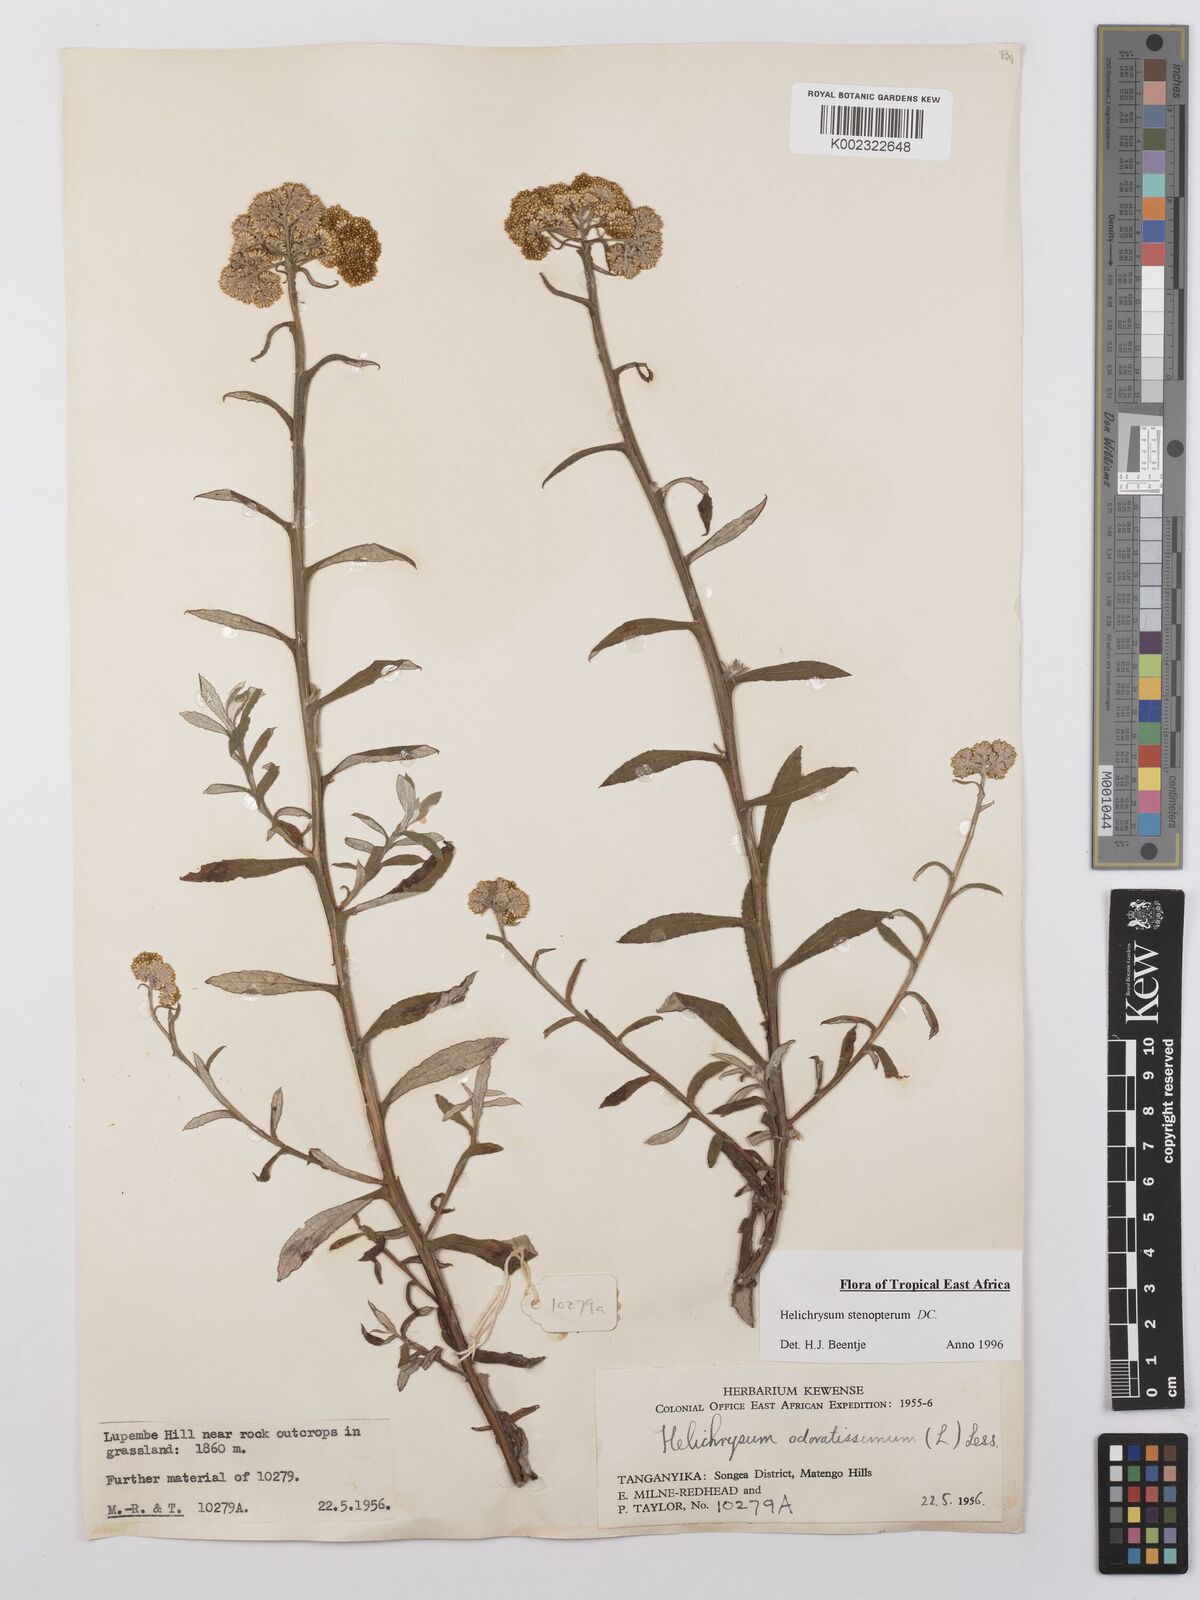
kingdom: Plantae
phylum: Tracheophyta
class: Magnoliopsida
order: Asterales
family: Asteraceae
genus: Helichrysum
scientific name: Helichrysum stenopterum
